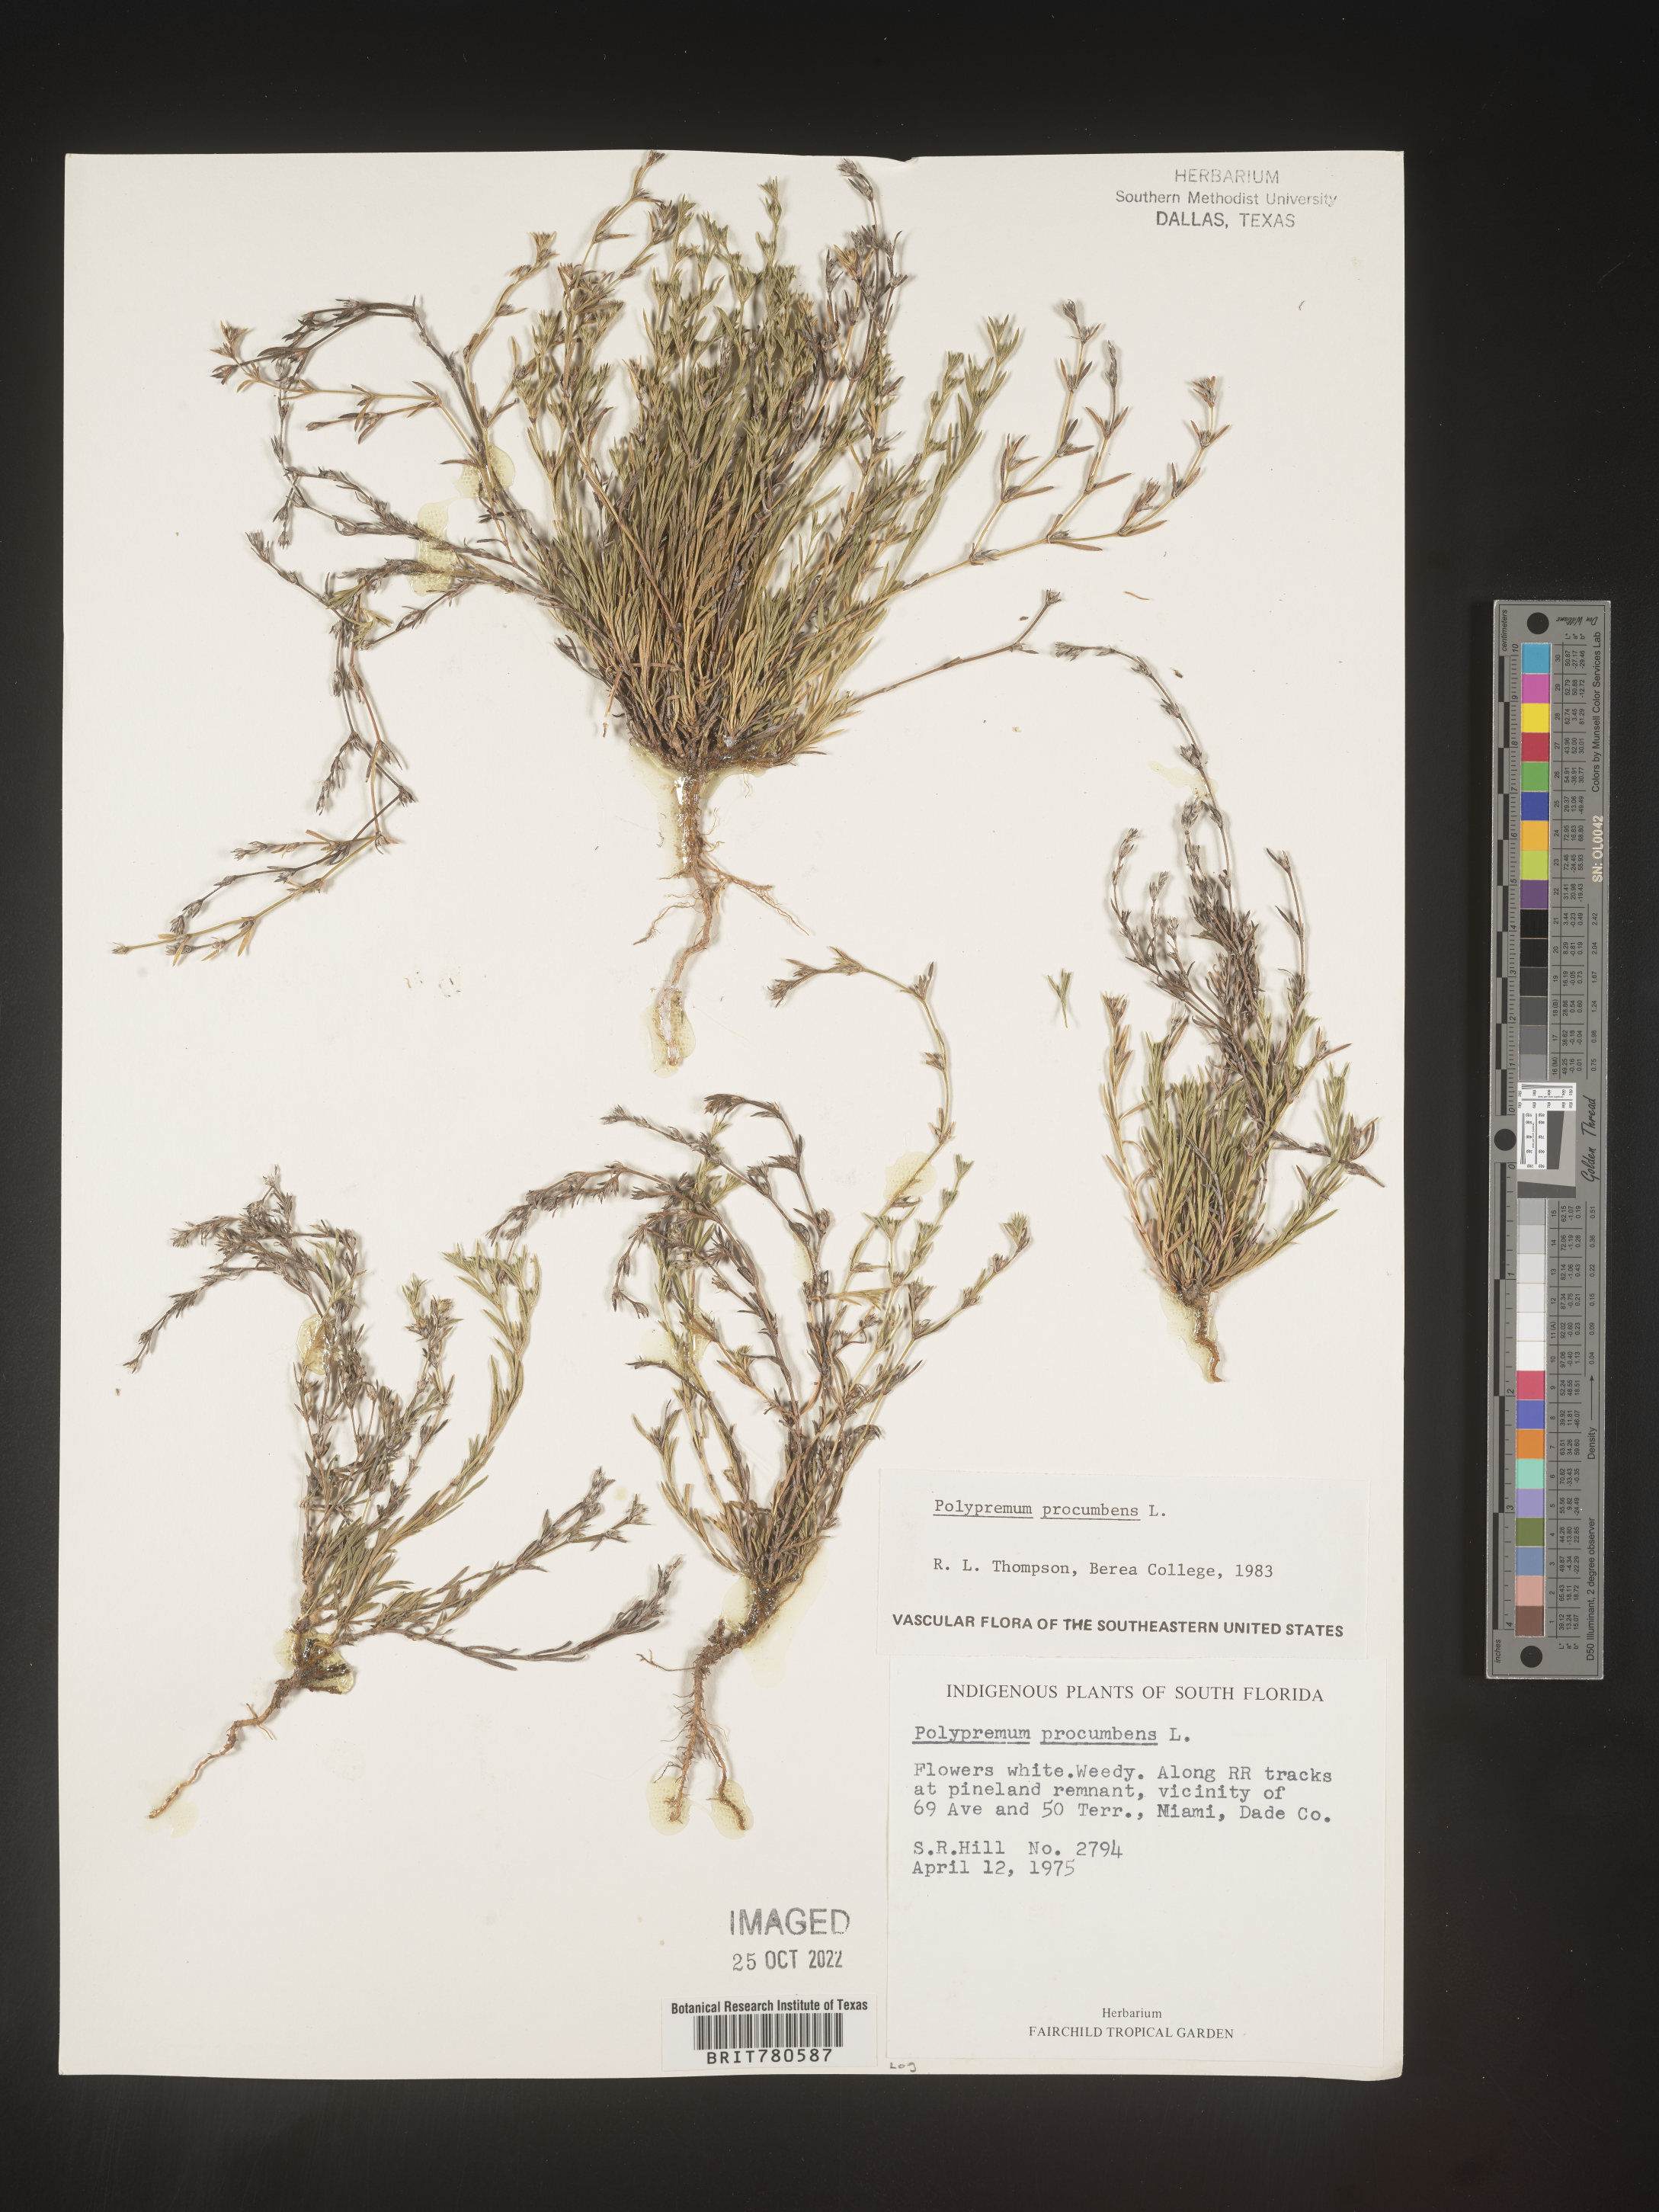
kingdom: Plantae
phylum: Tracheophyta
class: Magnoliopsida
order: Lamiales
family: Tetrachondraceae
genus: Polypremum
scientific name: Polypremum procumbens
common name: Juniper-leaf
